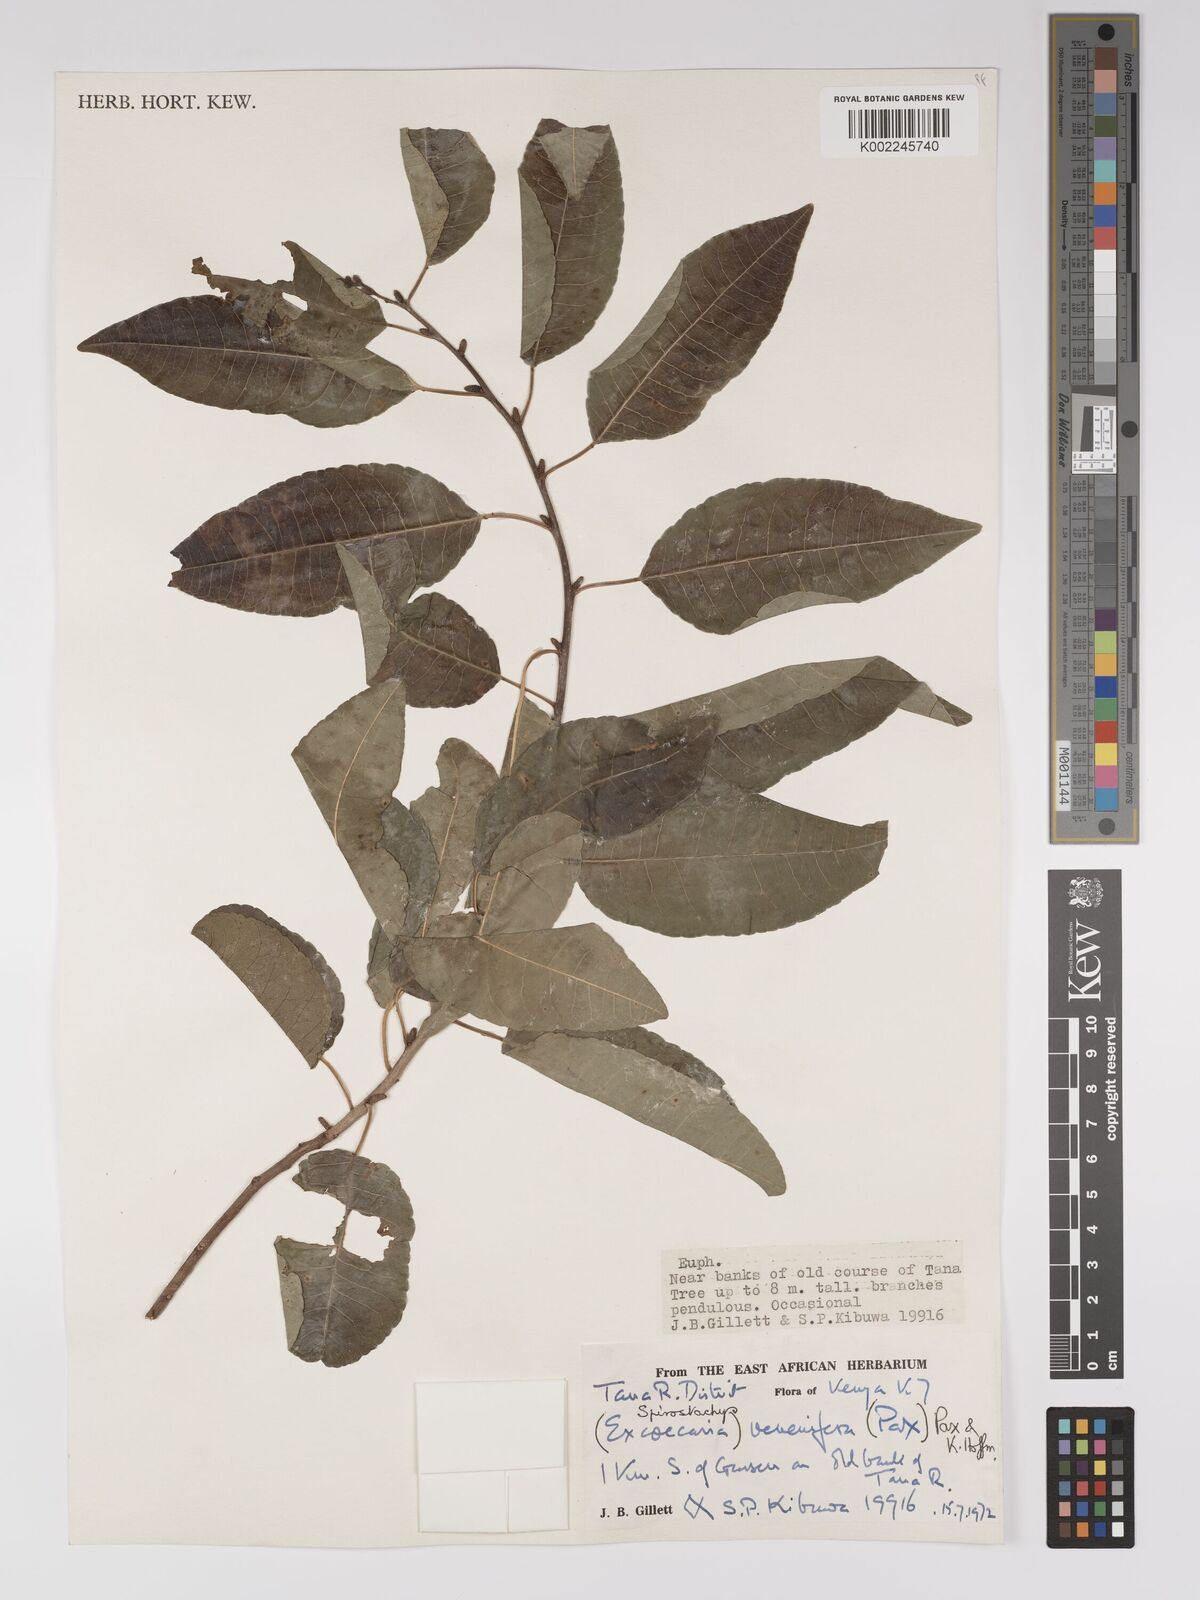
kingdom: Plantae
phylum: Tracheophyta
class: Magnoliopsida
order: Malpighiales
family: Euphorbiaceae
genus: Spirostachys
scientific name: Spirostachys venenifera
